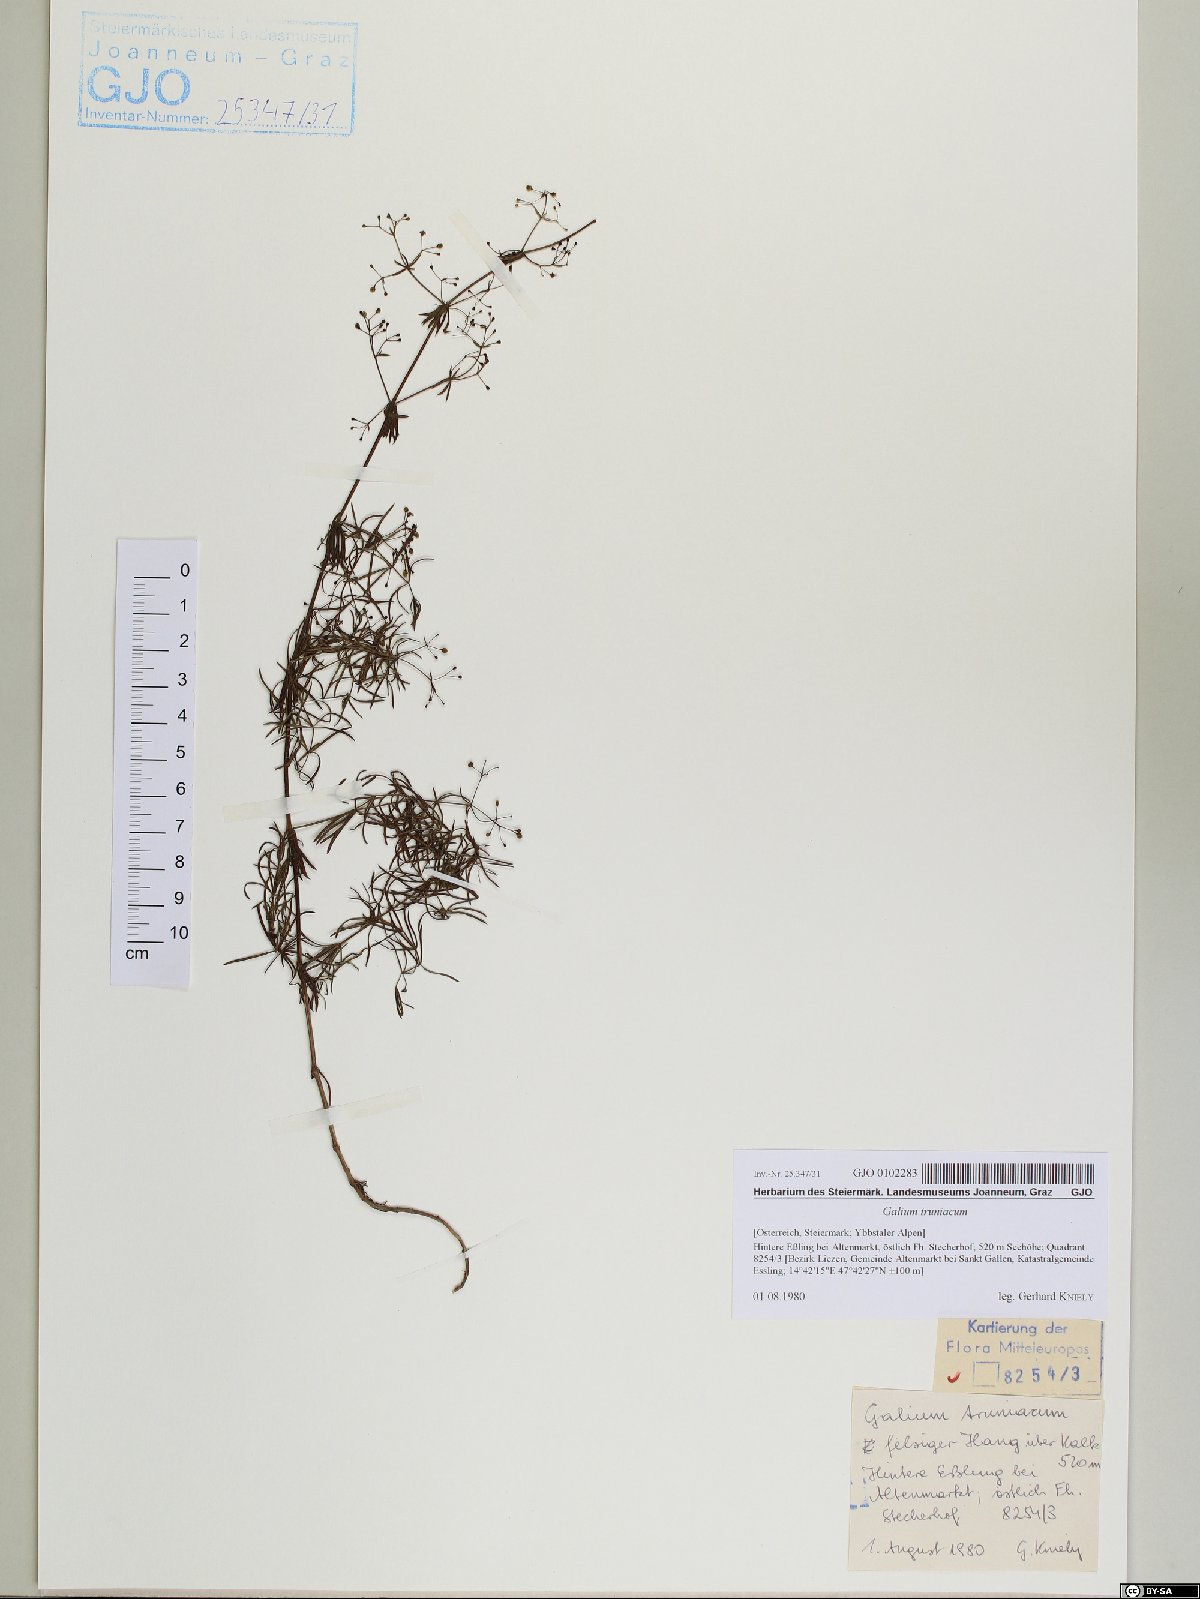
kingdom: Plantae
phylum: Tracheophyta
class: Magnoliopsida
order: Gentianales
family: Rubiaceae
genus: Galium
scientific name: Galium truniacum
